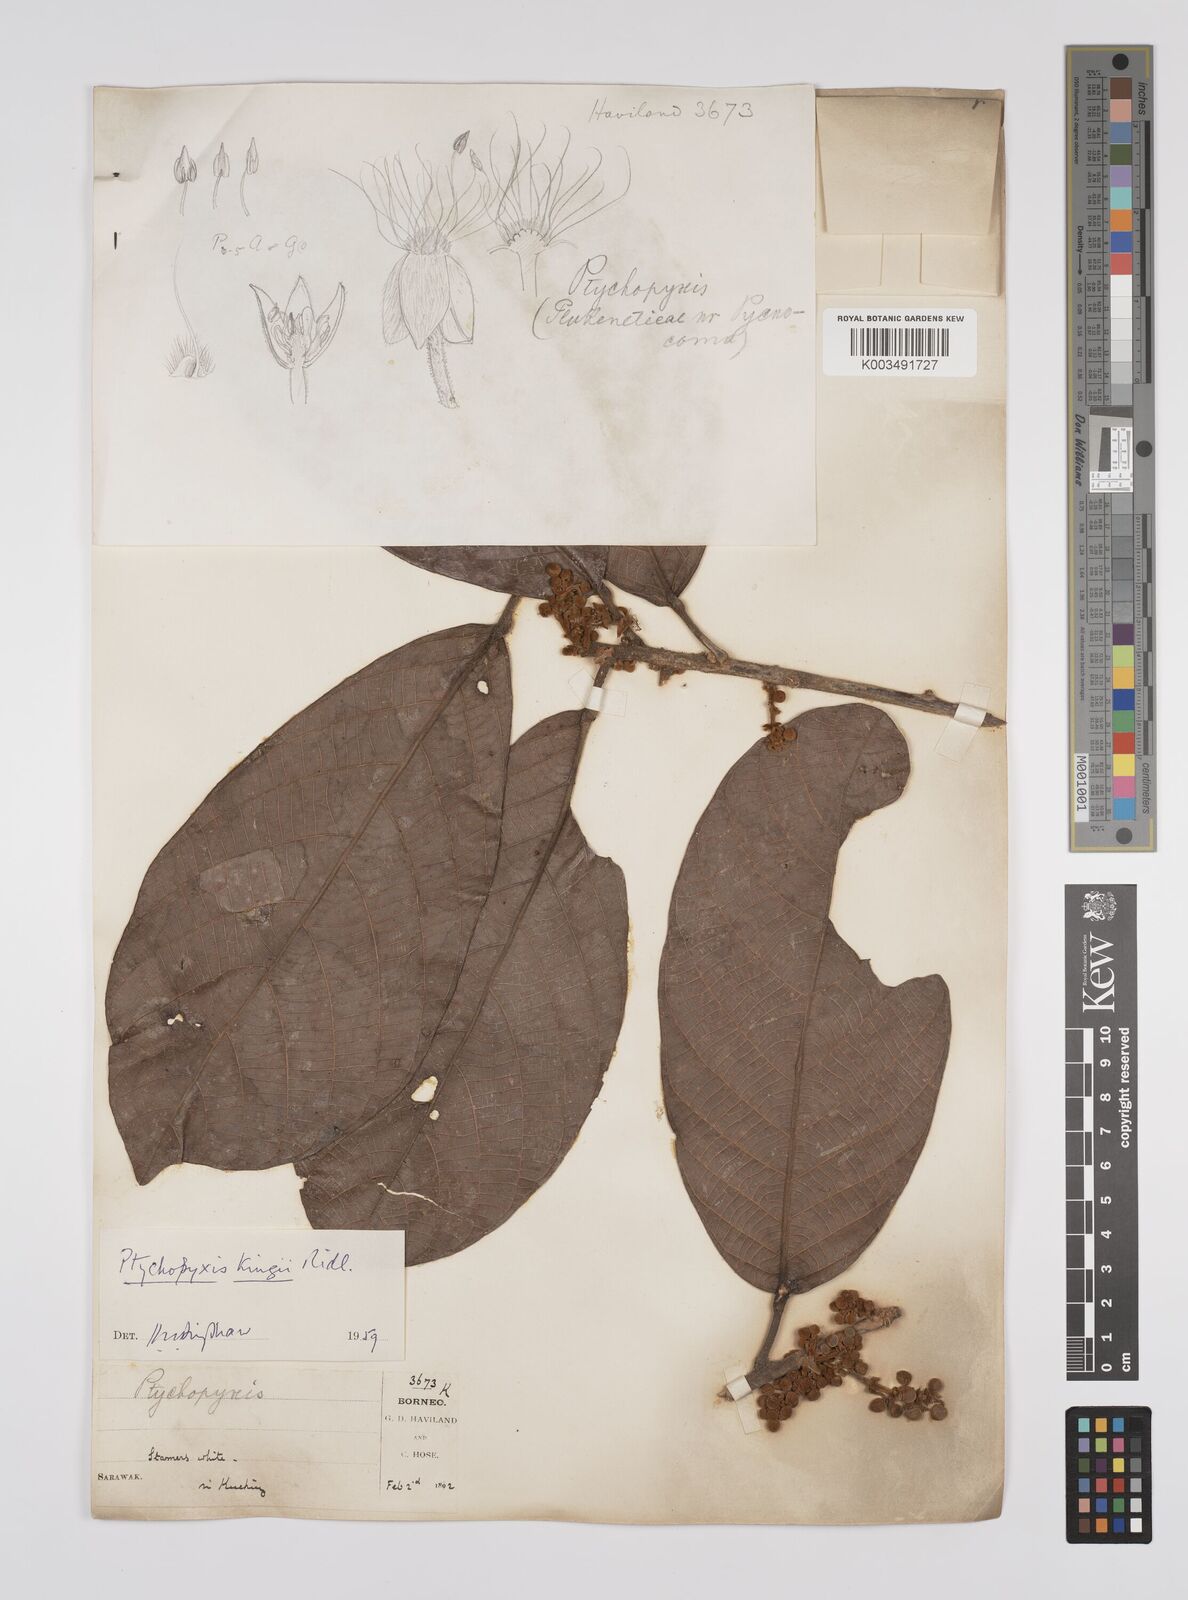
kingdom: Plantae
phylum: Tracheophyta
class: Magnoliopsida
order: Malpighiales
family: Euphorbiaceae
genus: Ptychopyxis
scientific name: Ptychopyxis kingii
